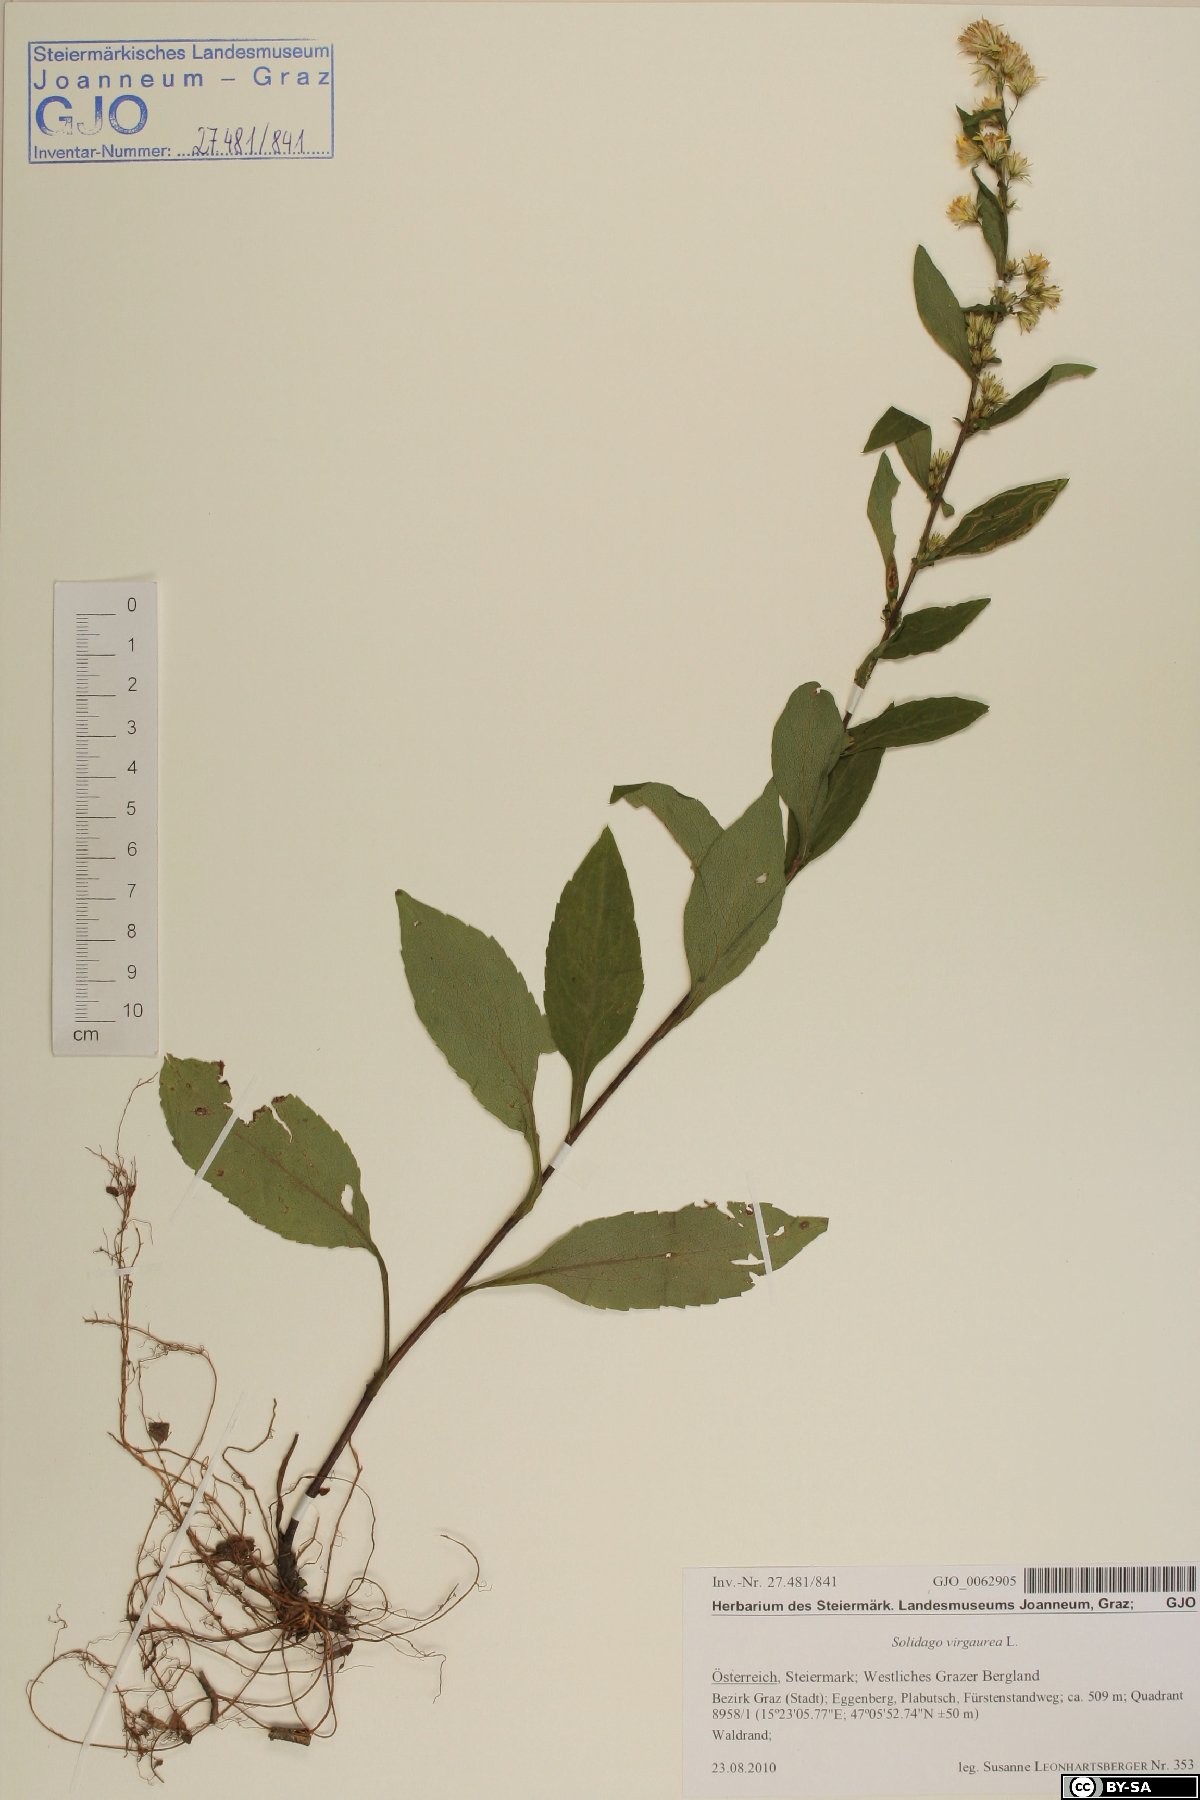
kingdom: Plantae
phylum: Tracheophyta
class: Magnoliopsida
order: Asterales
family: Asteraceae
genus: Solidago
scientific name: Solidago virgaurea
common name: Goldenrod
